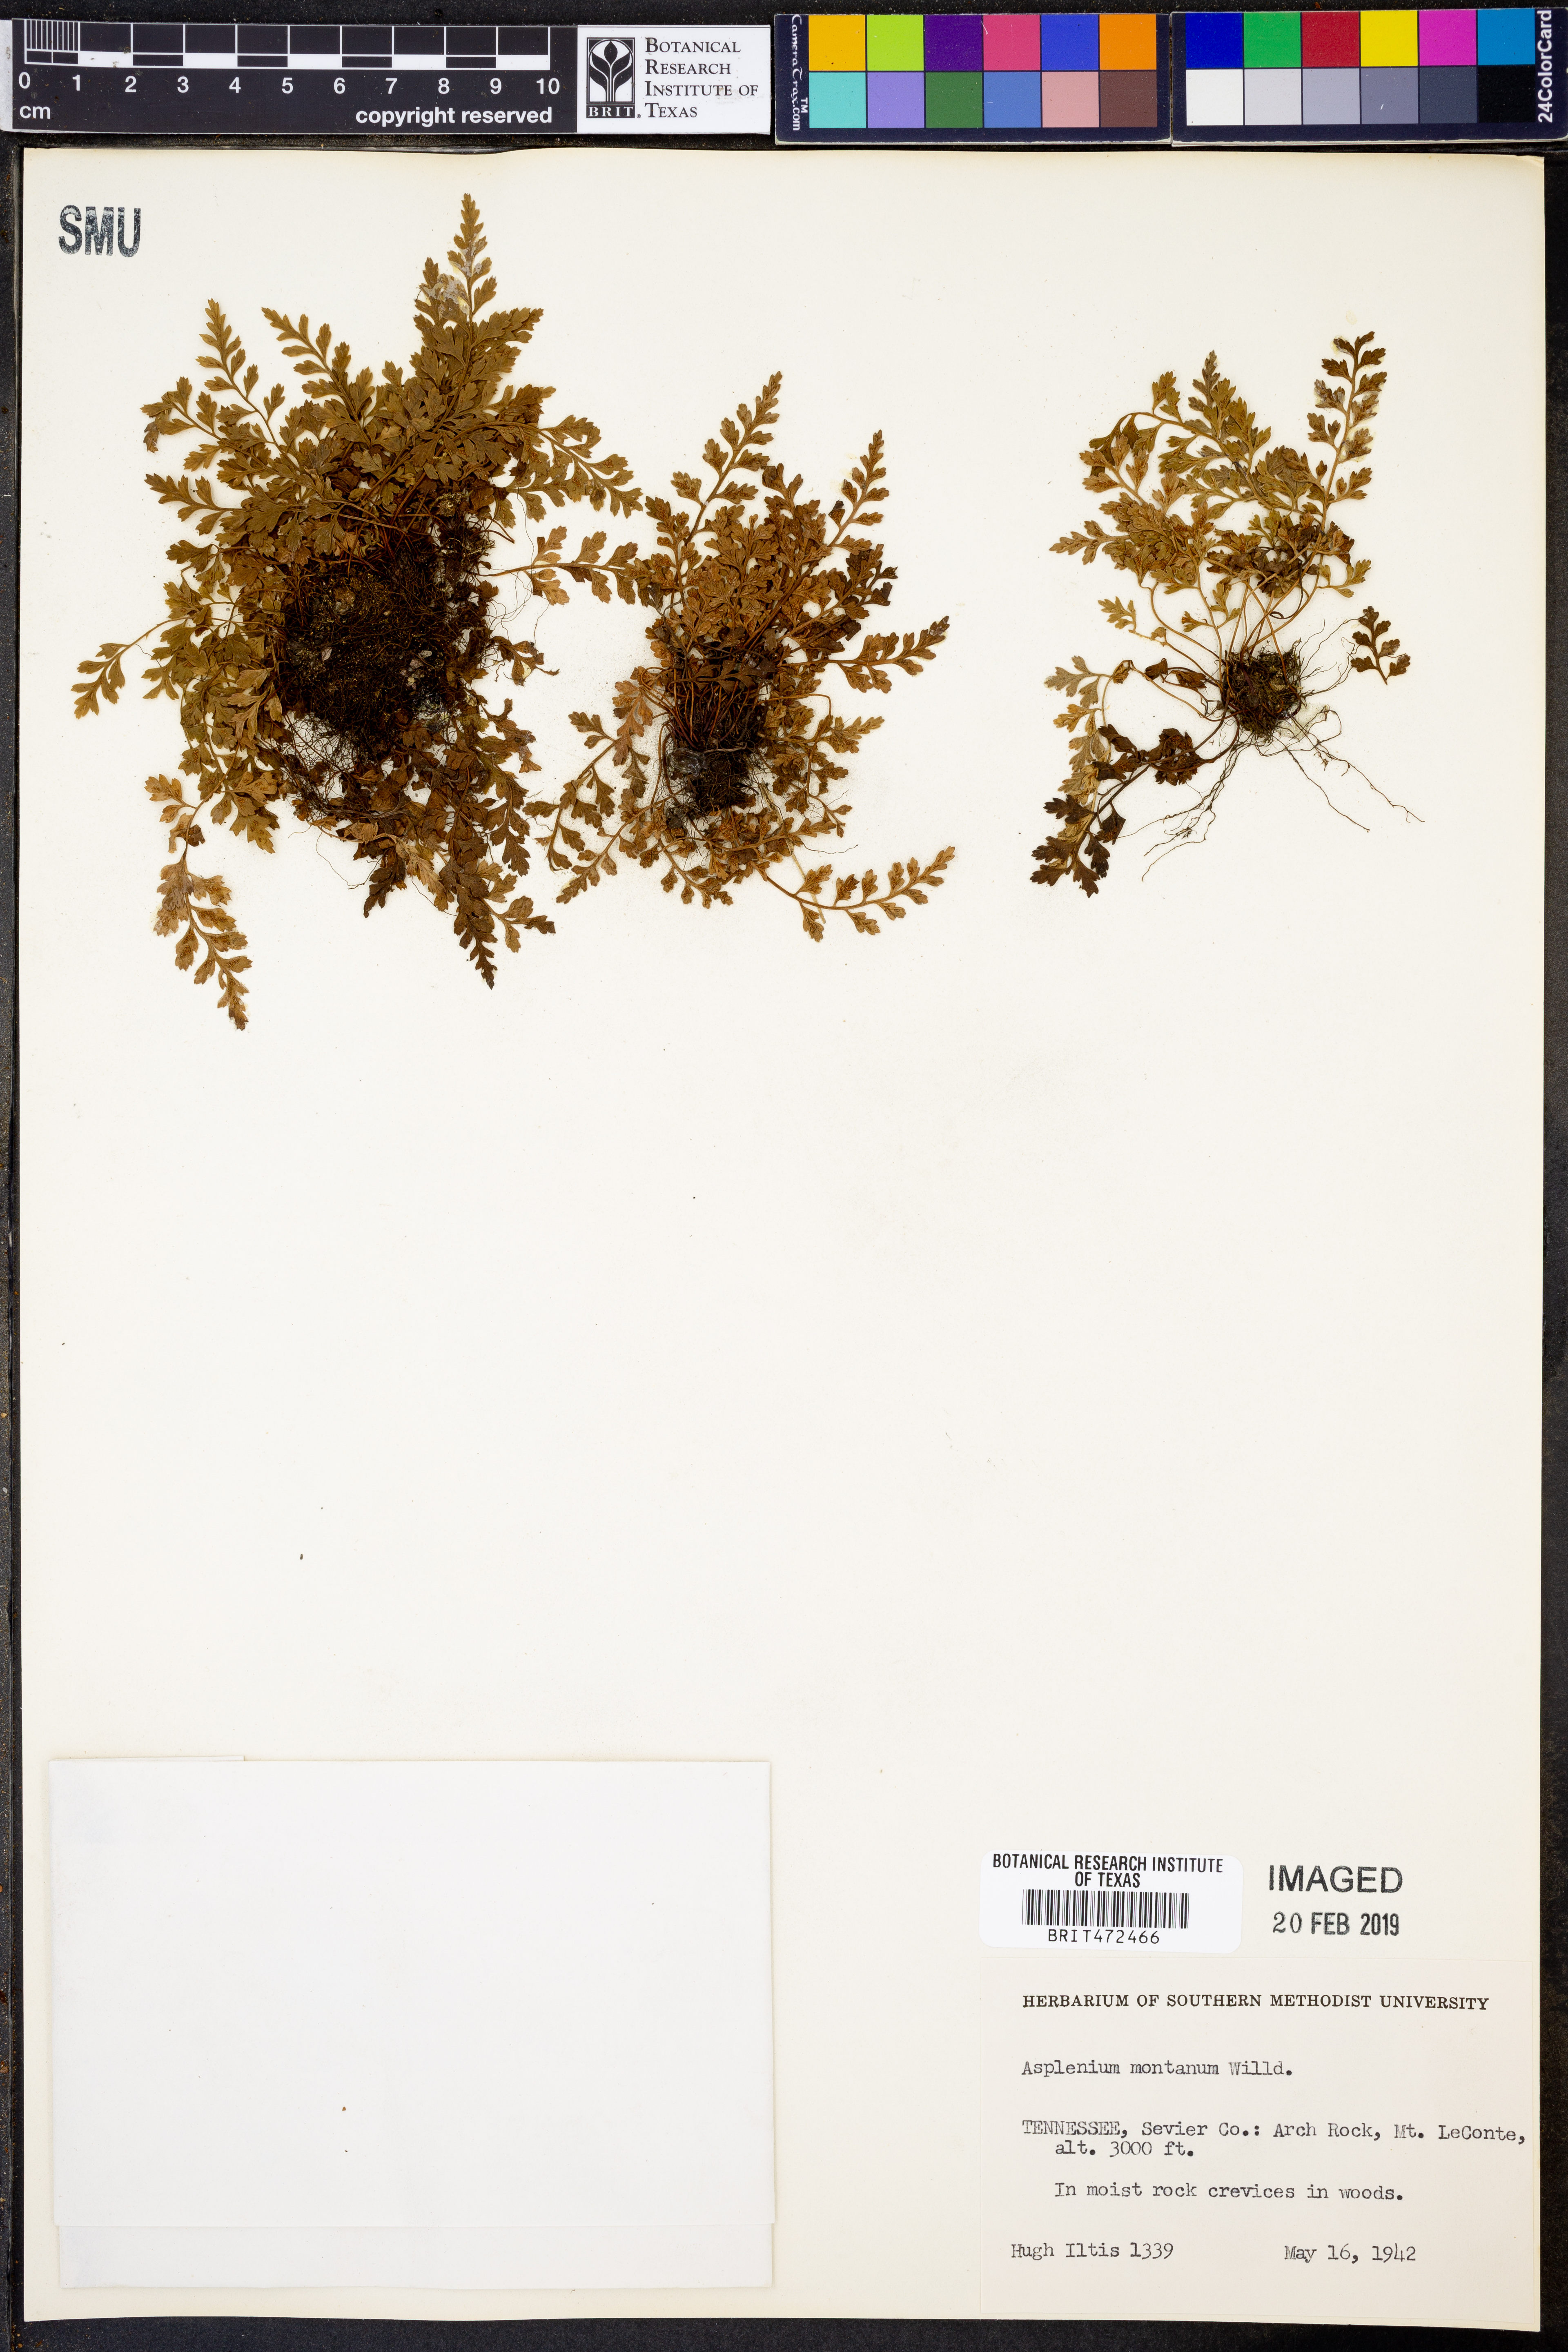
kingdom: Plantae
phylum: Tracheophyta
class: Polypodiopsida
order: Polypodiales
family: Aspleniaceae
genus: Asplenium
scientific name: Asplenium montanum
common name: Mountain spleenwort
